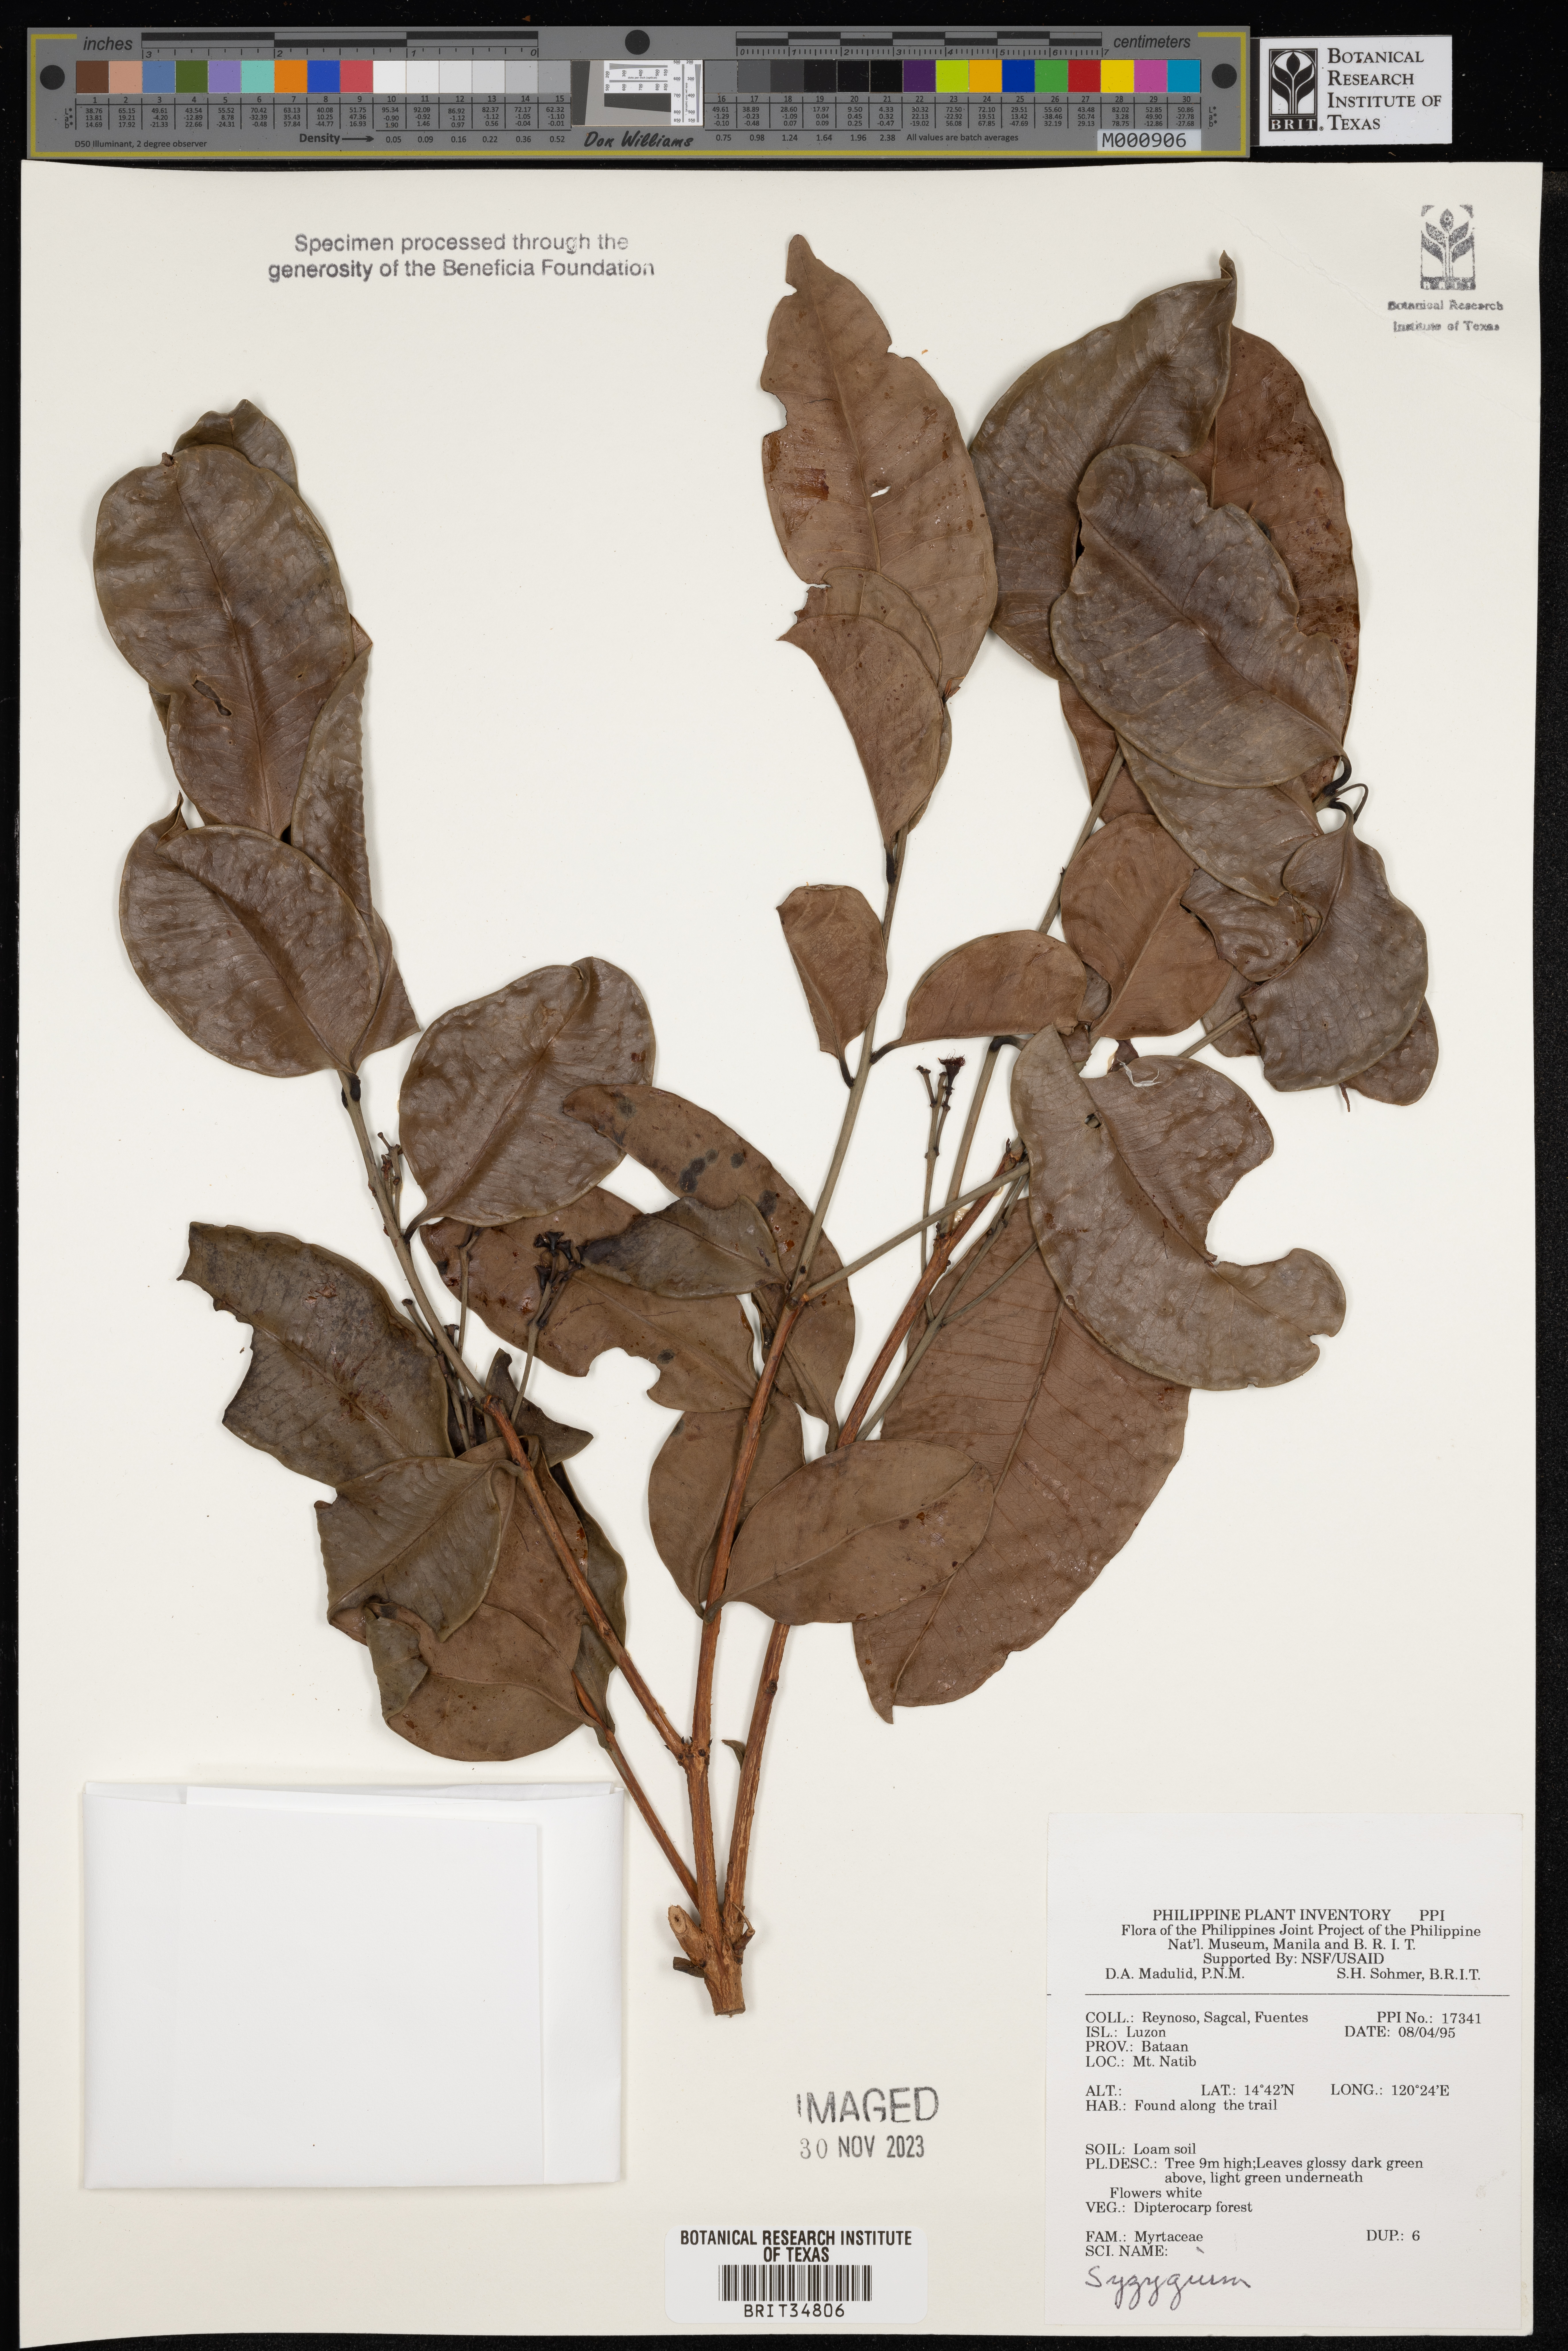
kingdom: Plantae
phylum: Tracheophyta
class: Magnoliopsida
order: Myrtales
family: Myrtaceae
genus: Syzygium
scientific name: Syzygium
